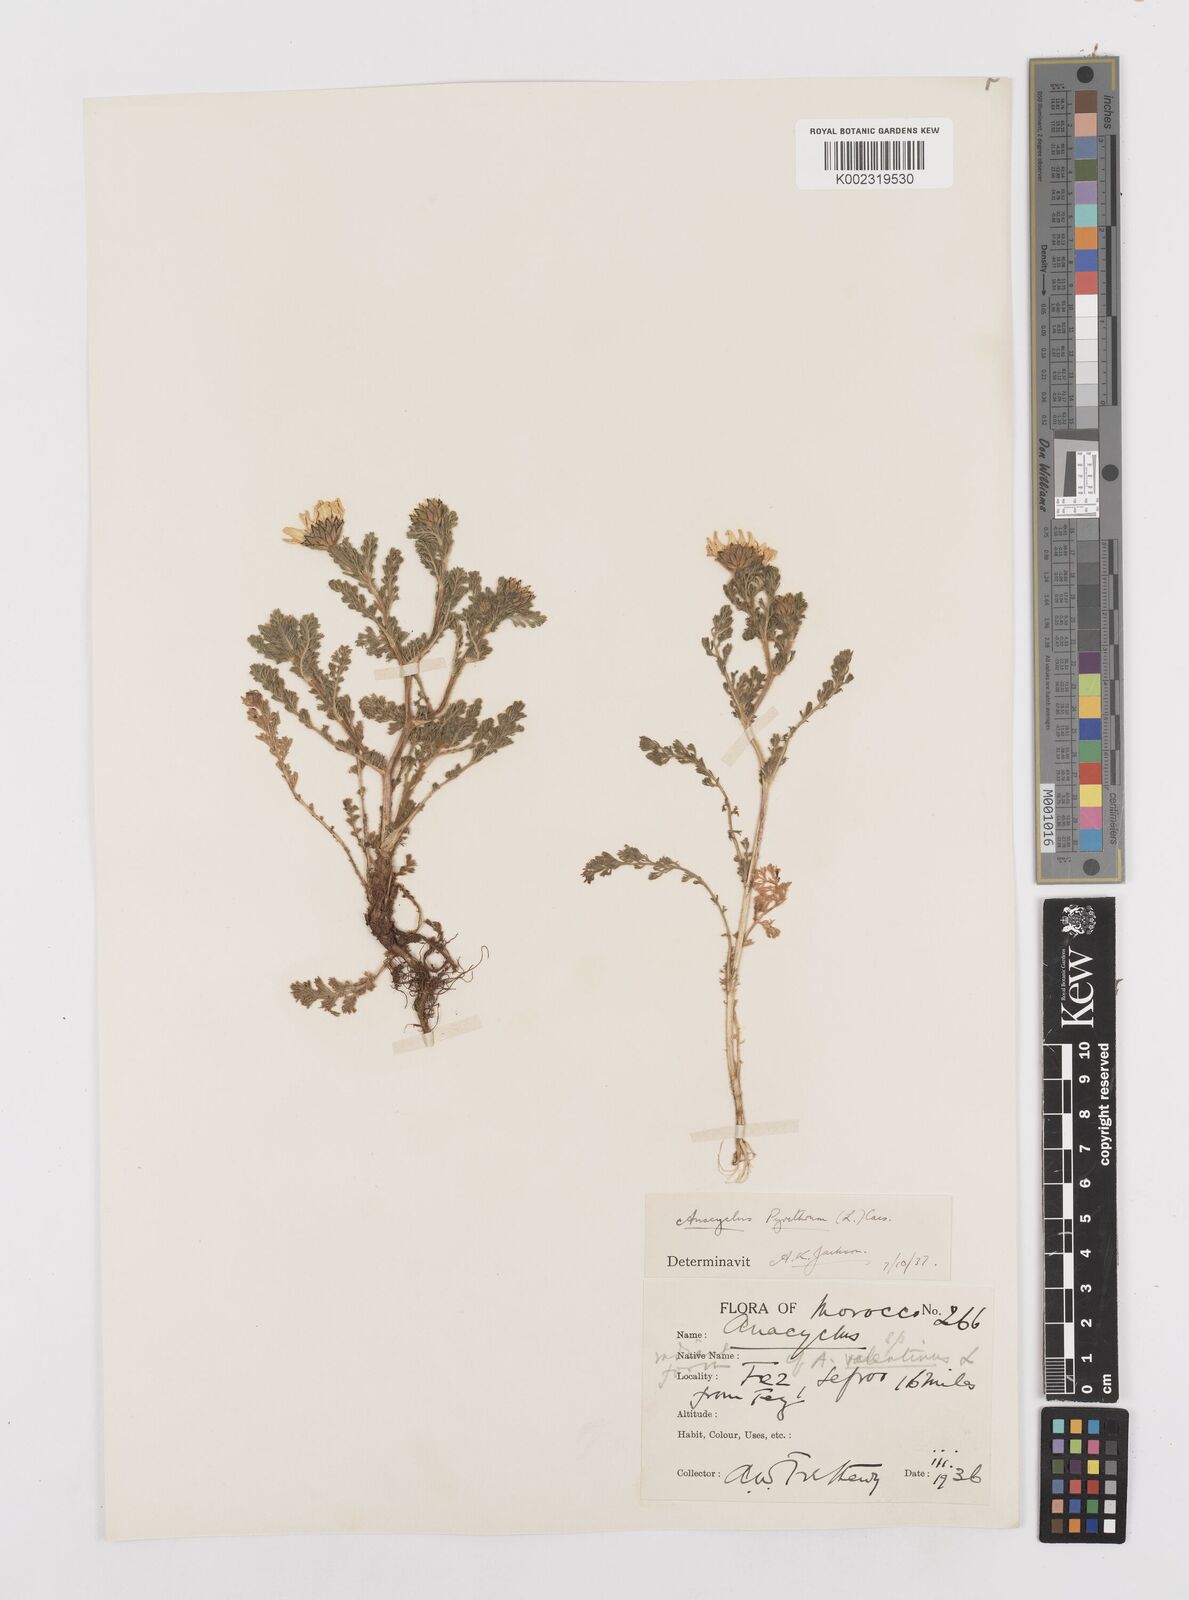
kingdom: Plantae
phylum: Tracheophyta
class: Magnoliopsida
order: Asterales
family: Asteraceae
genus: Anacyclus
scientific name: Anacyclus pyrethrum
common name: Mt. atlas daisy
